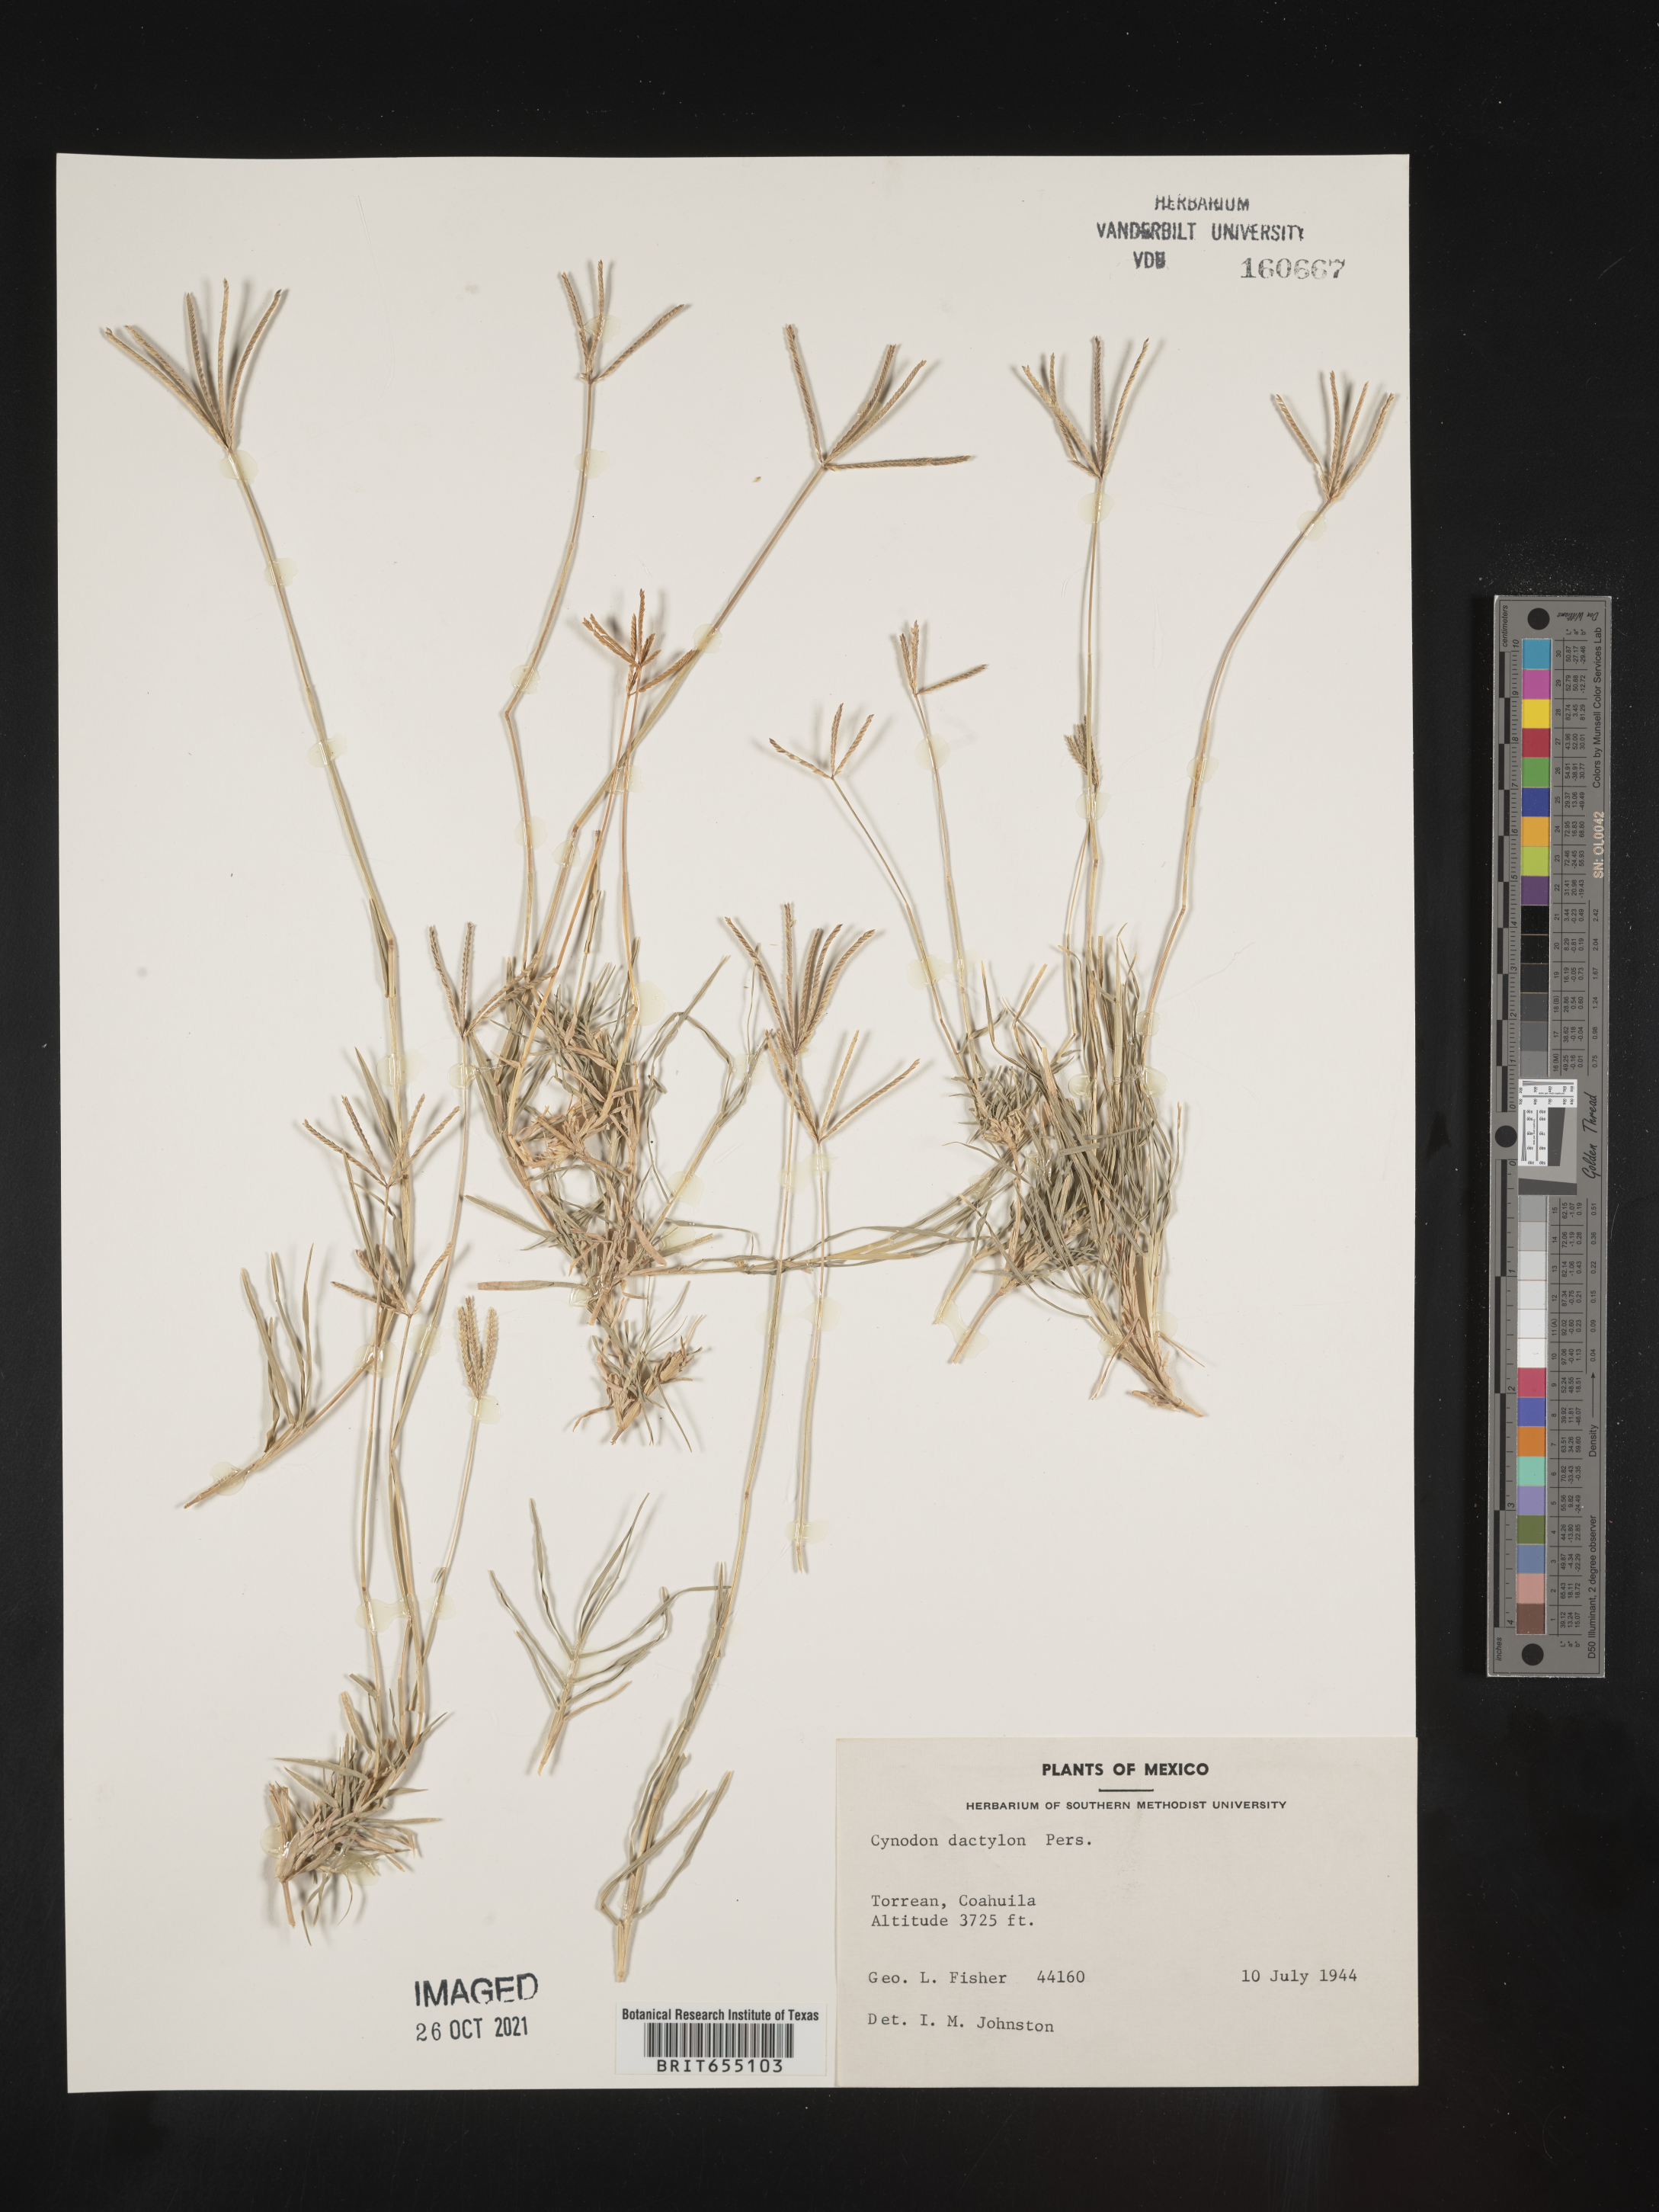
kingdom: Plantae
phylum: Tracheophyta
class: Liliopsida
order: Poales
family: Poaceae
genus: Cynodon
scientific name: Cynodon
